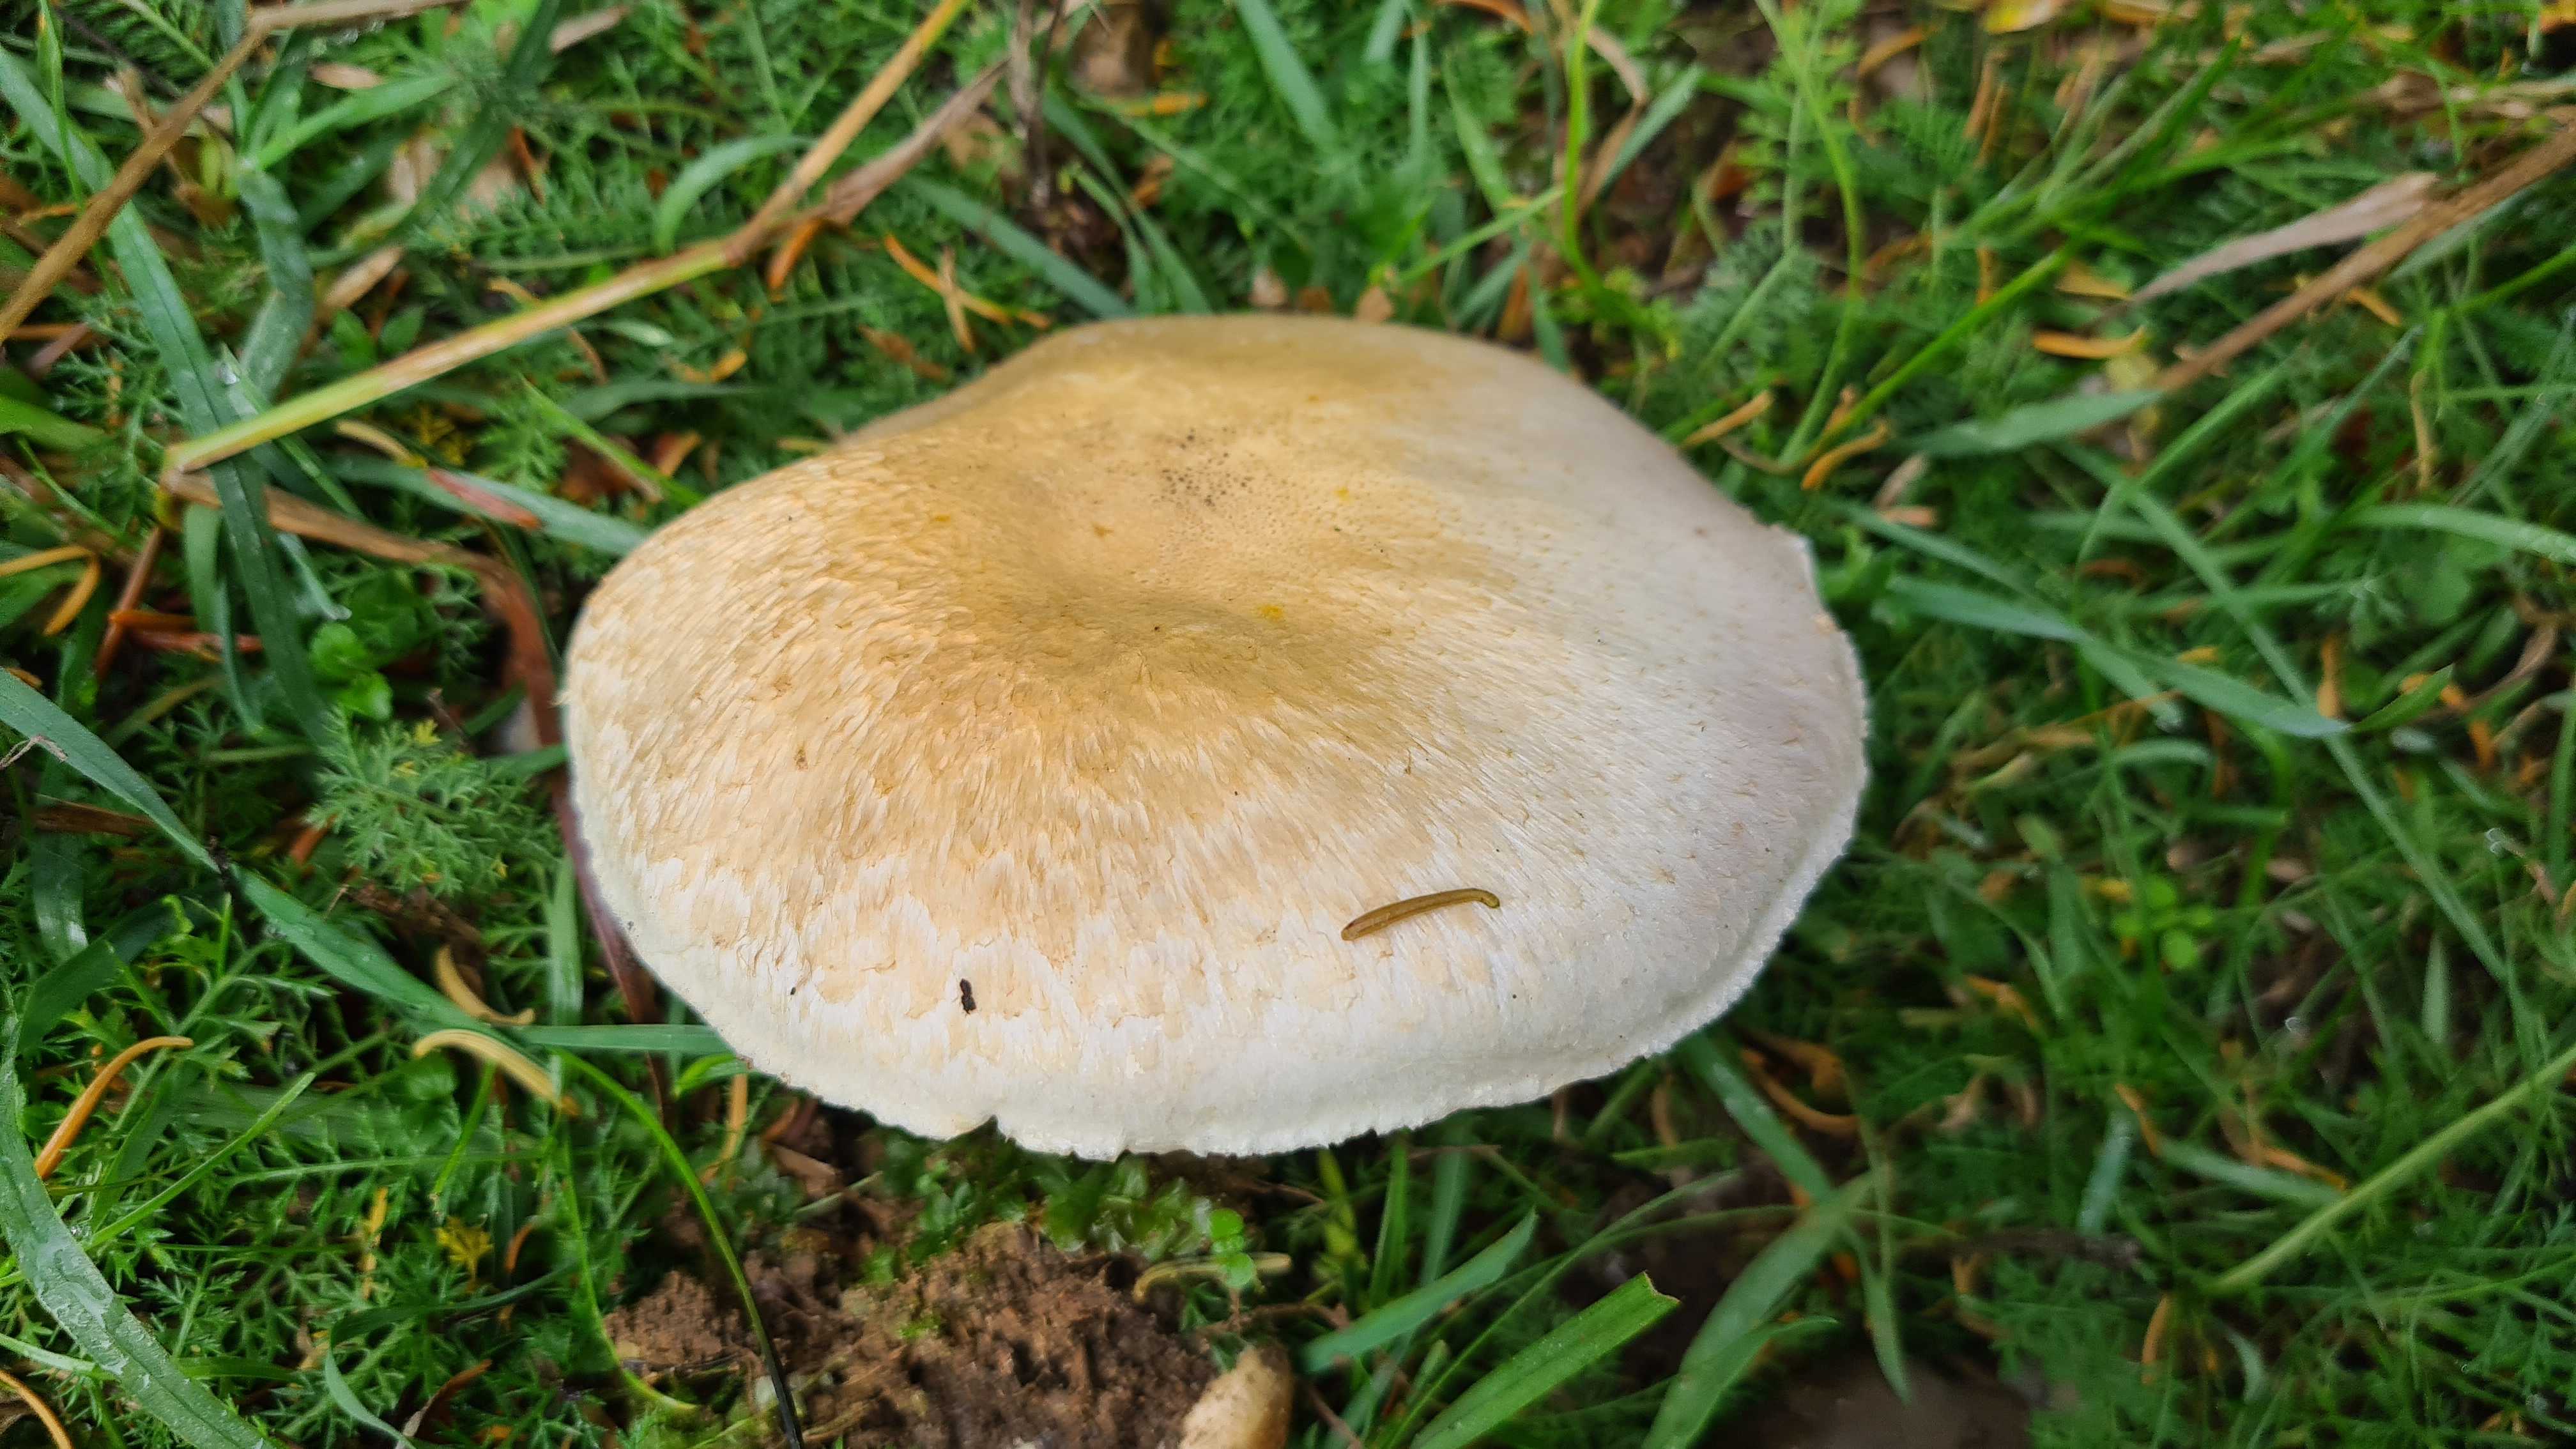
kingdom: Fungi
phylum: Basidiomycota
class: Agaricomycetes
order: Agaricales
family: Agaricaceae
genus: Agaricus
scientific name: Agaricus
